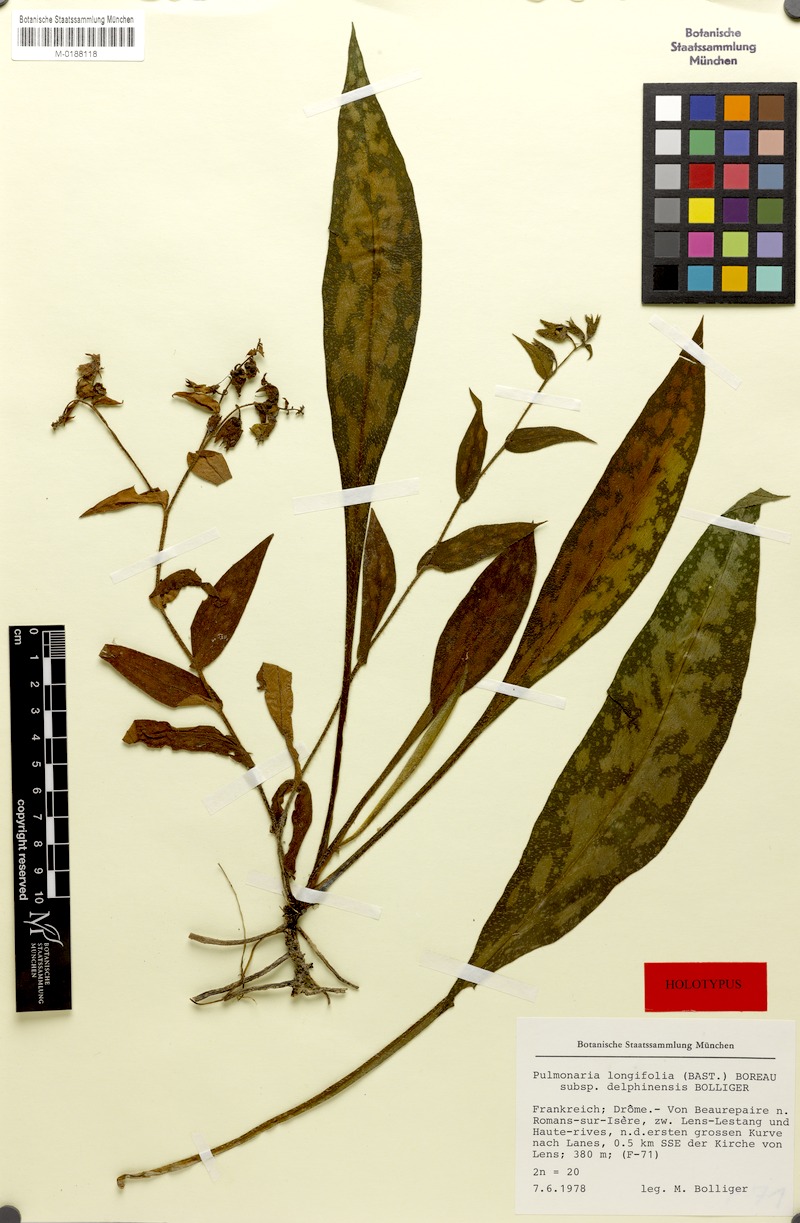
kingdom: Plantae
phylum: Tracheophyta
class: Magnoliopsida
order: Boraginales
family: Boraginaceae
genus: Pulmonaria
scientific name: Pulmonaria longifolia
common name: Narrow-leaved lungwort
